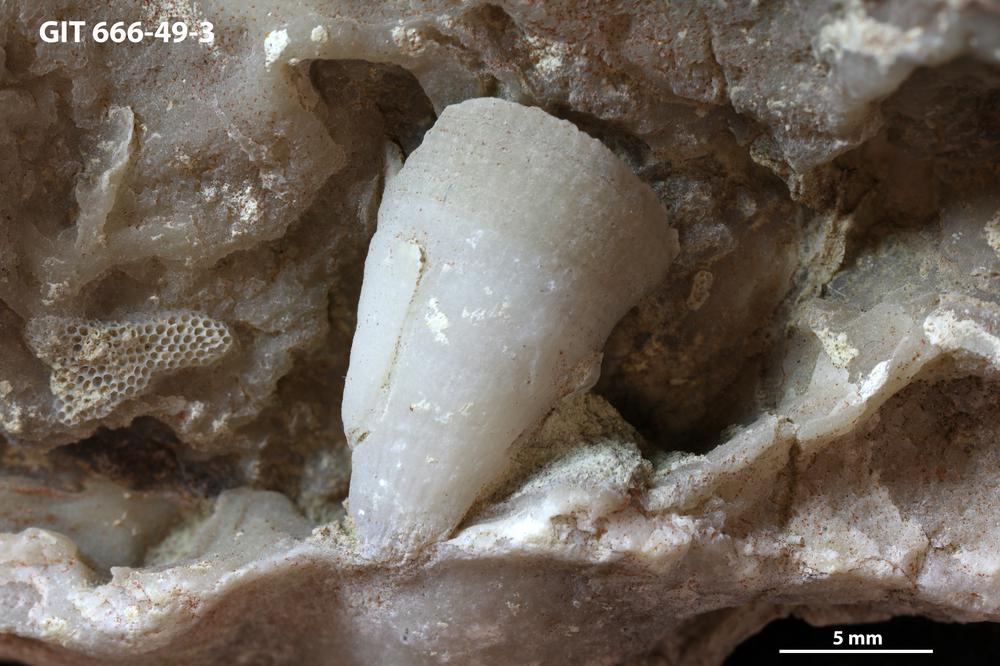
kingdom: Animalia
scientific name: Animalia
